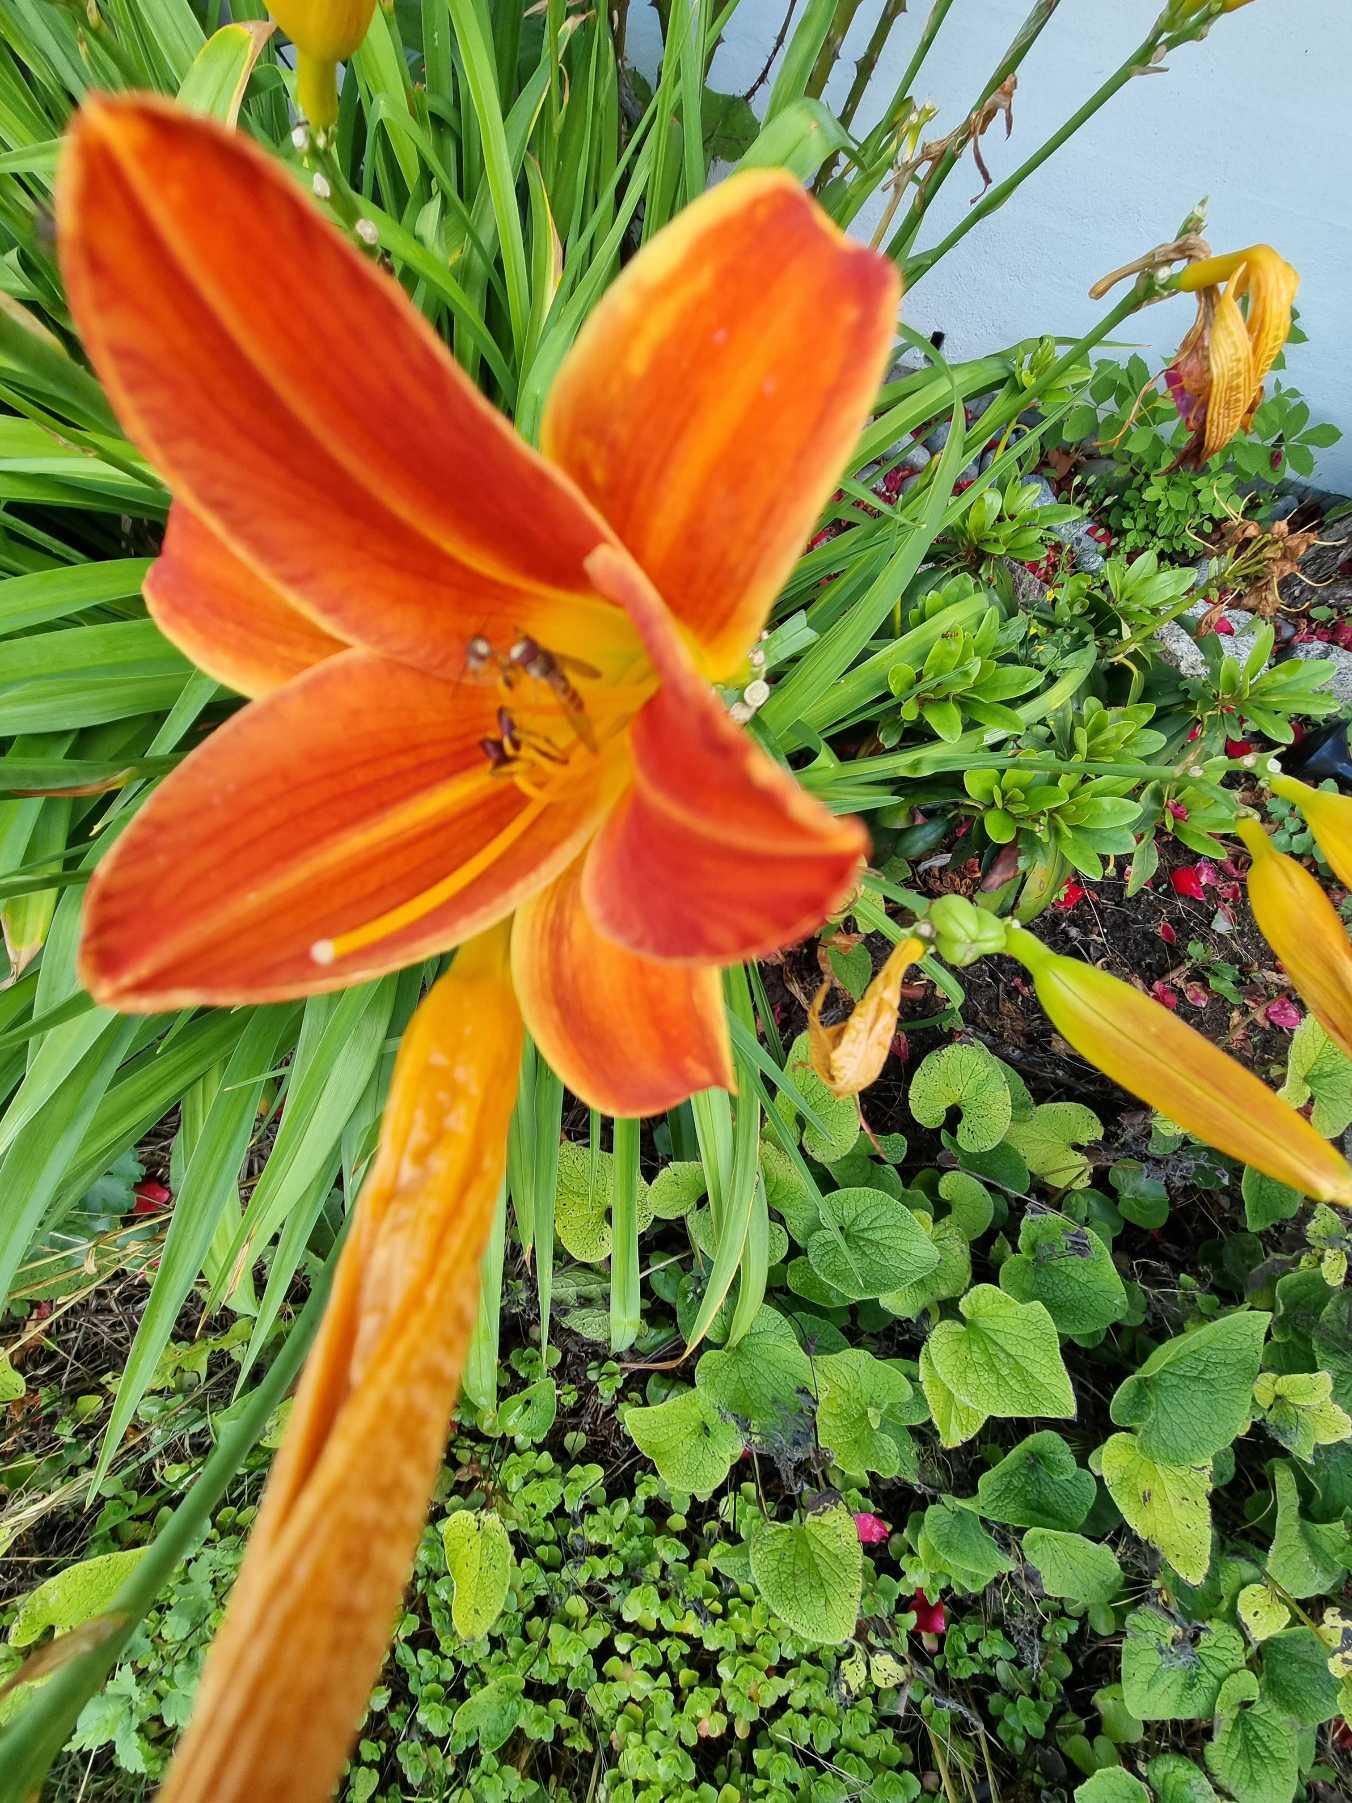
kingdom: Plantae
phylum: Tracheophyta
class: Liliopsida
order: Asparagales
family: Asphodelaceae
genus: Hemerocallis
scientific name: Hemerocallis
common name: Dagliljeslægten
